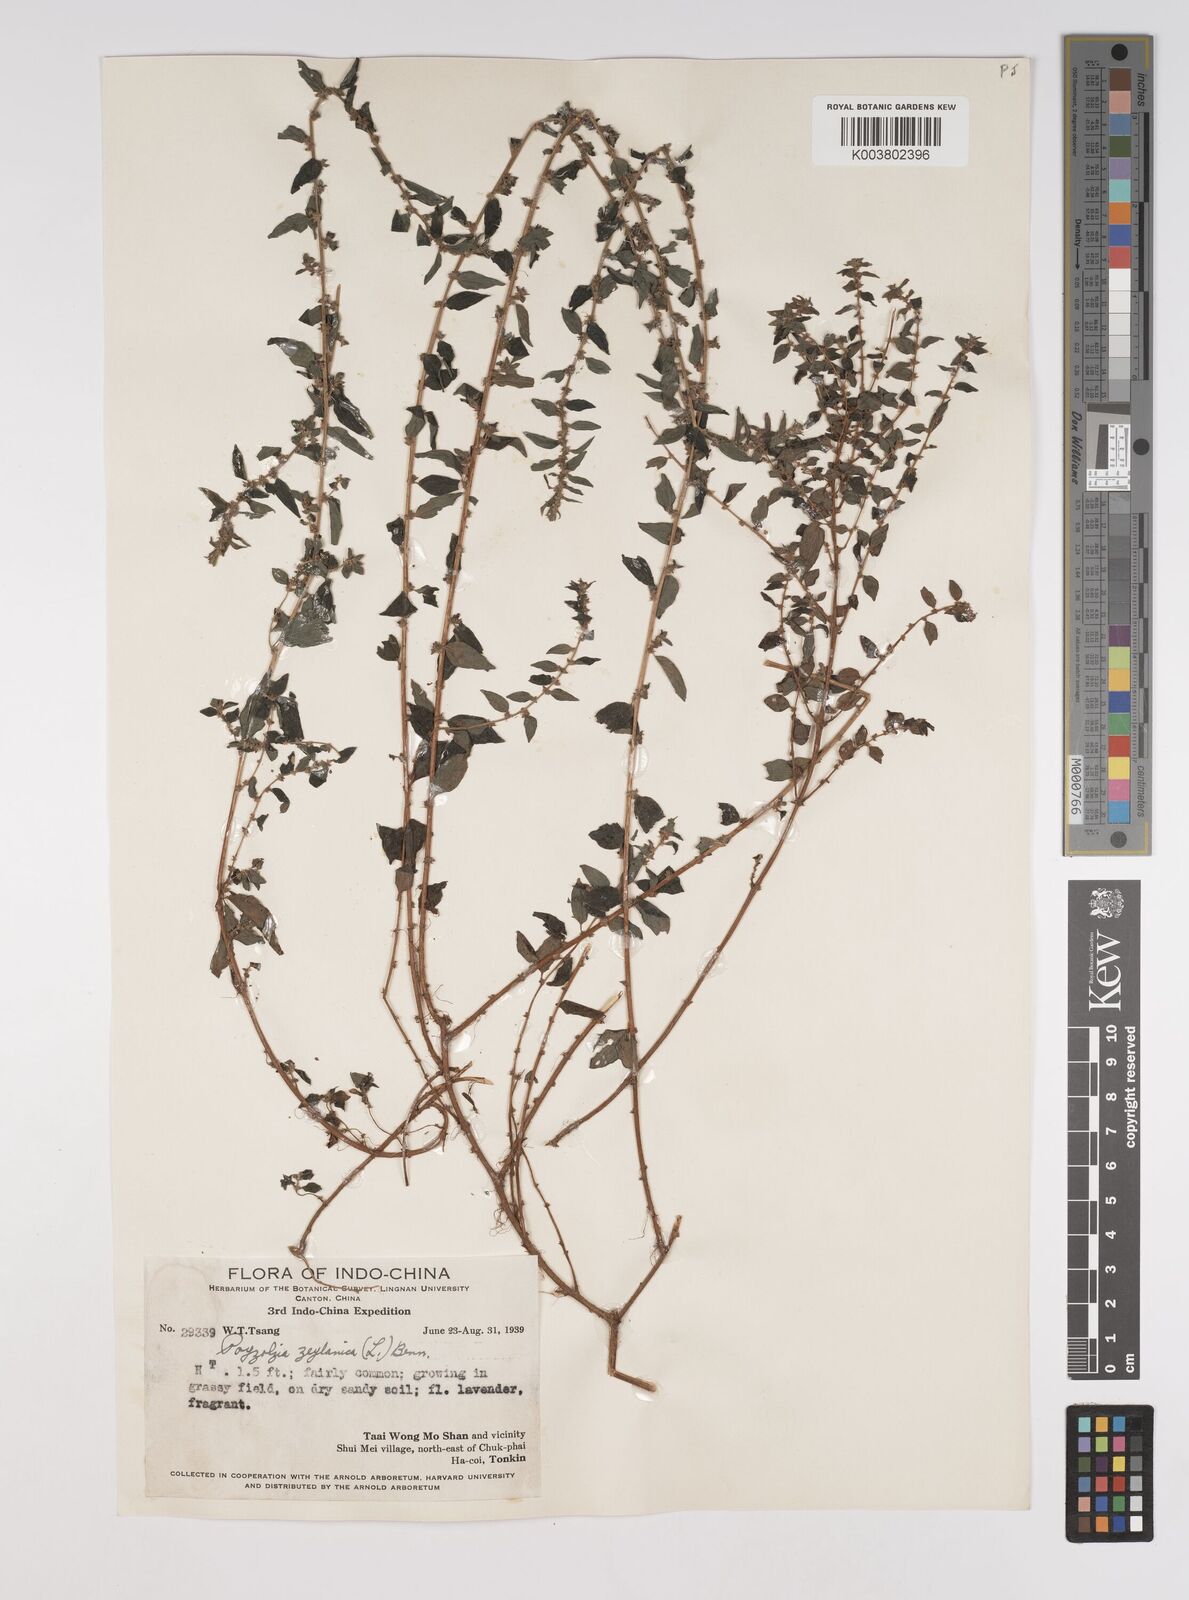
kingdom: Plantae
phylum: Tracheophyta
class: Magnoliopsida
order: Rosales
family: Urticaceae
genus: Pouzolzia
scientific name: Pouzolzia zeylanica
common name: Graceful pouzolzsbush
